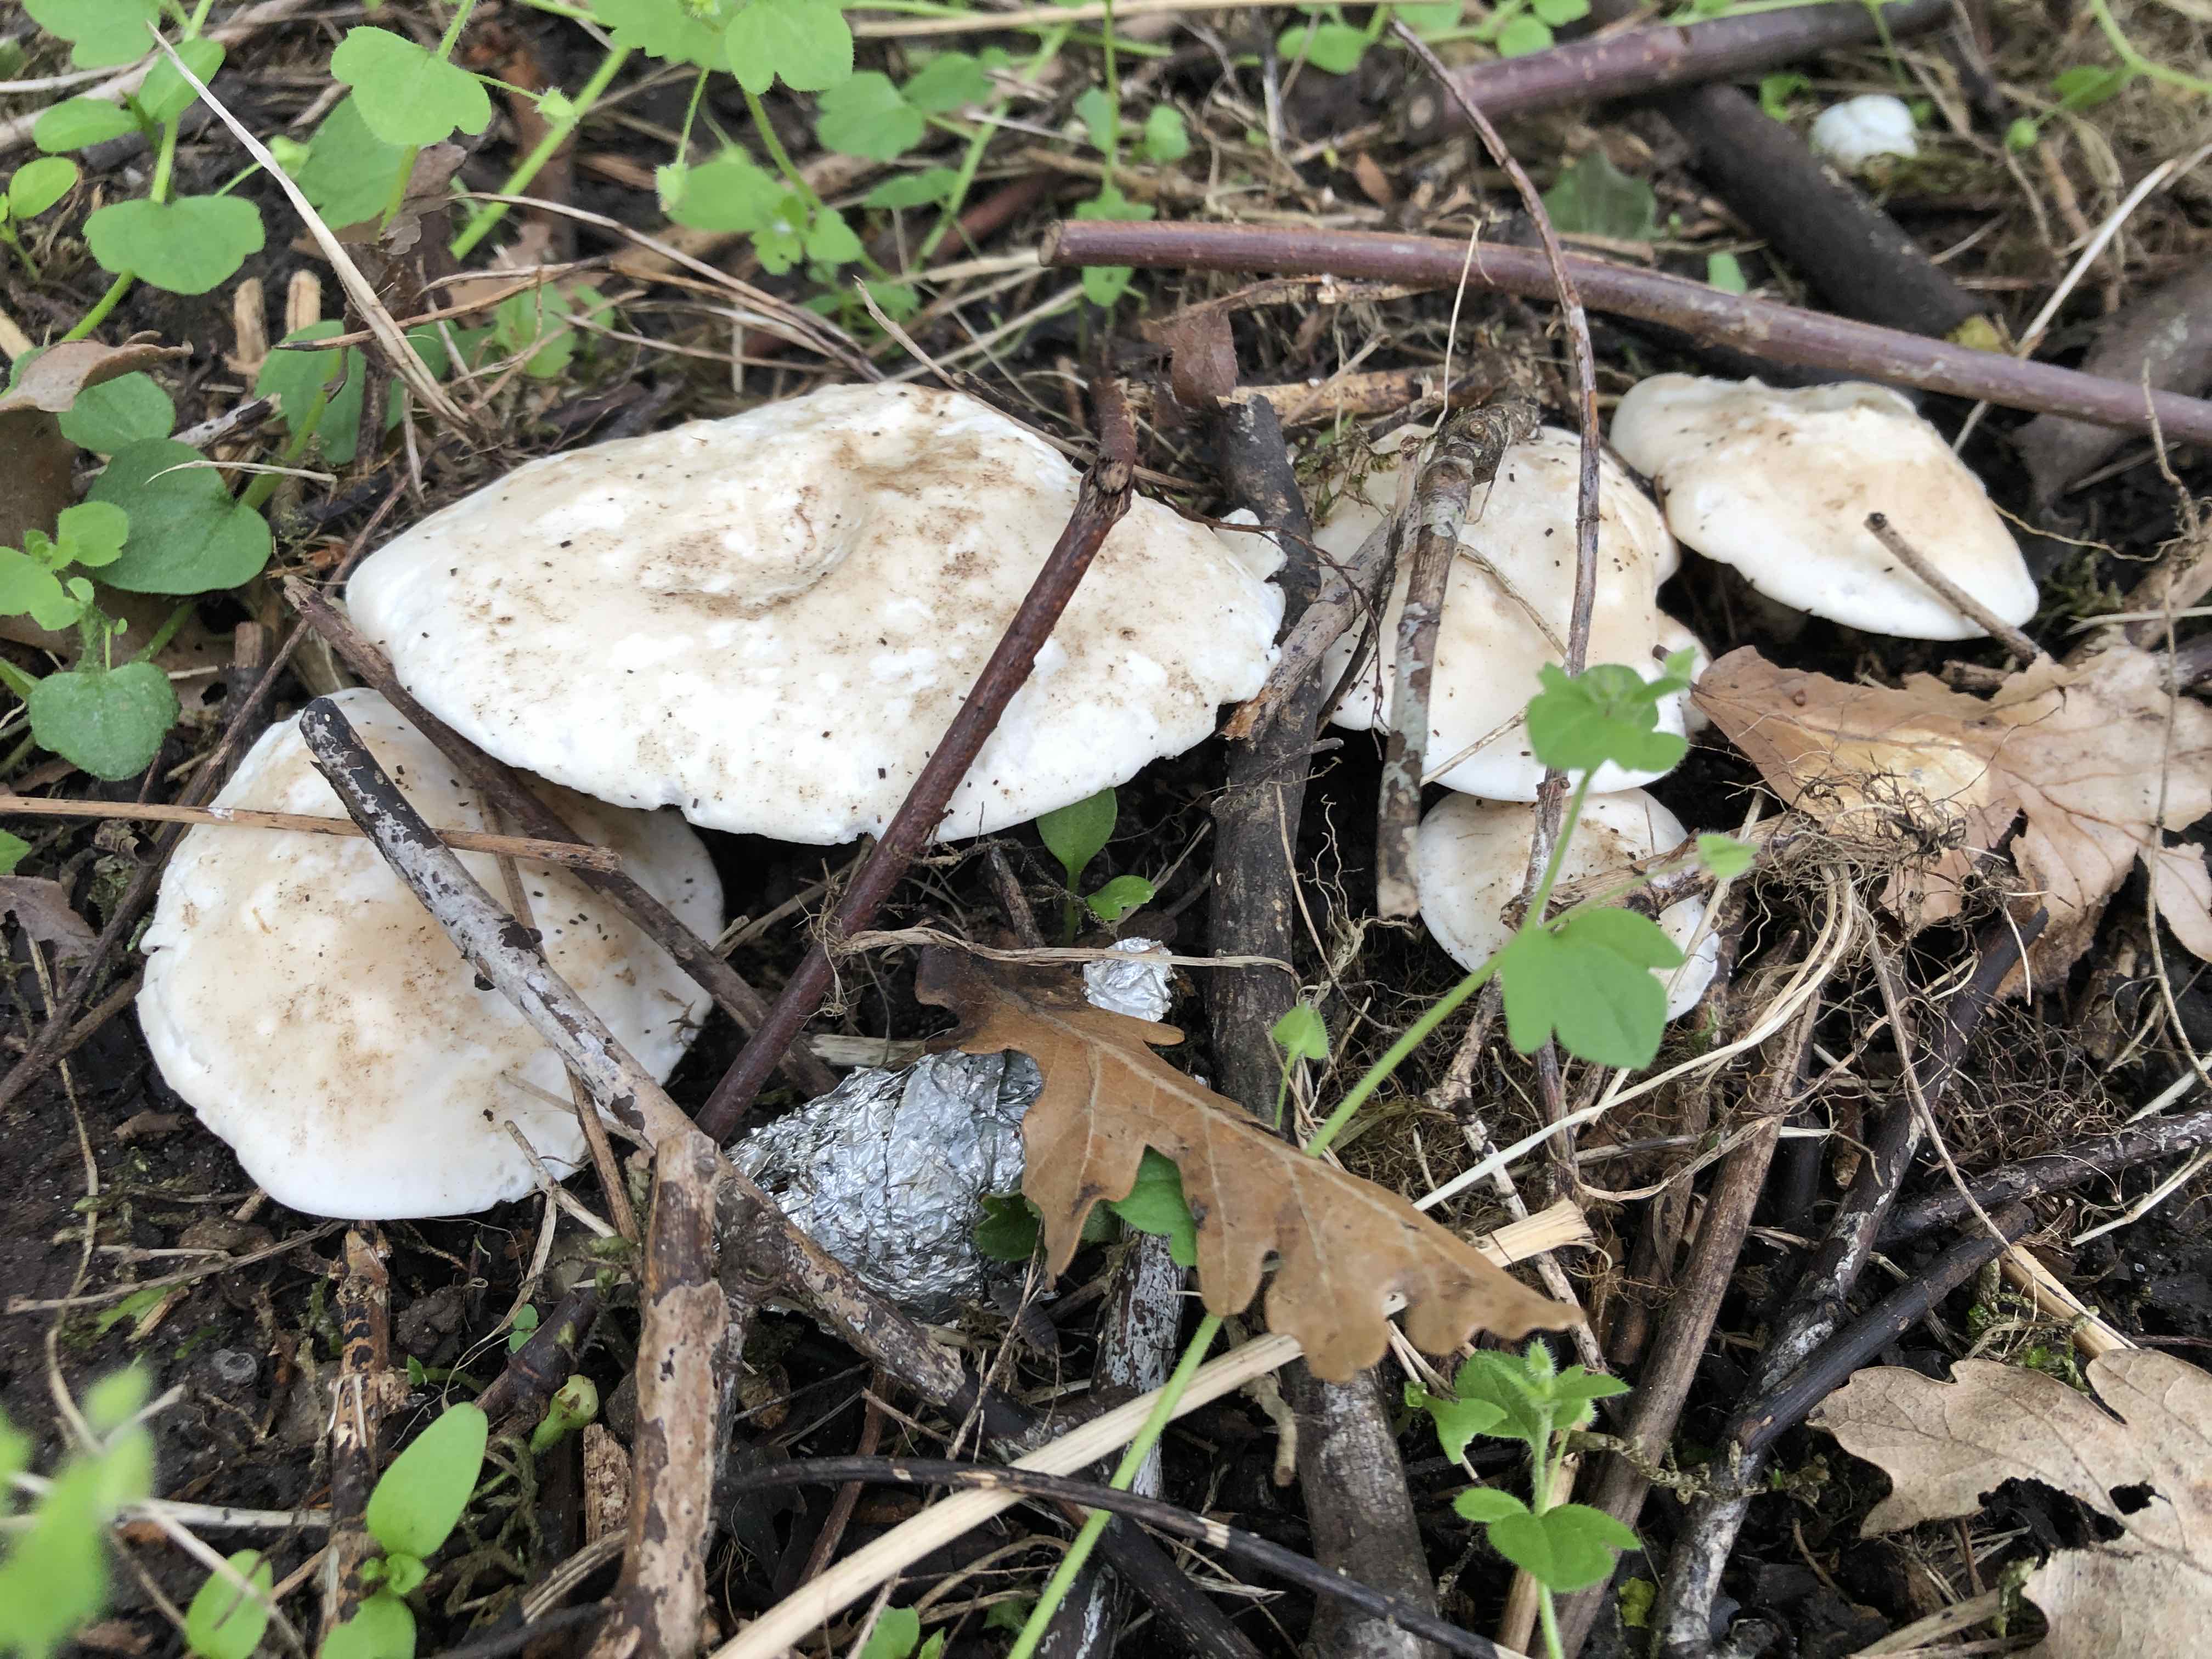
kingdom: Fungi
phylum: Basidiomycota
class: Agaricomycetes
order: Agaricales
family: Lyophyllaceae
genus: Calocybe
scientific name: Calocybe gambosa
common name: vårmusseron
